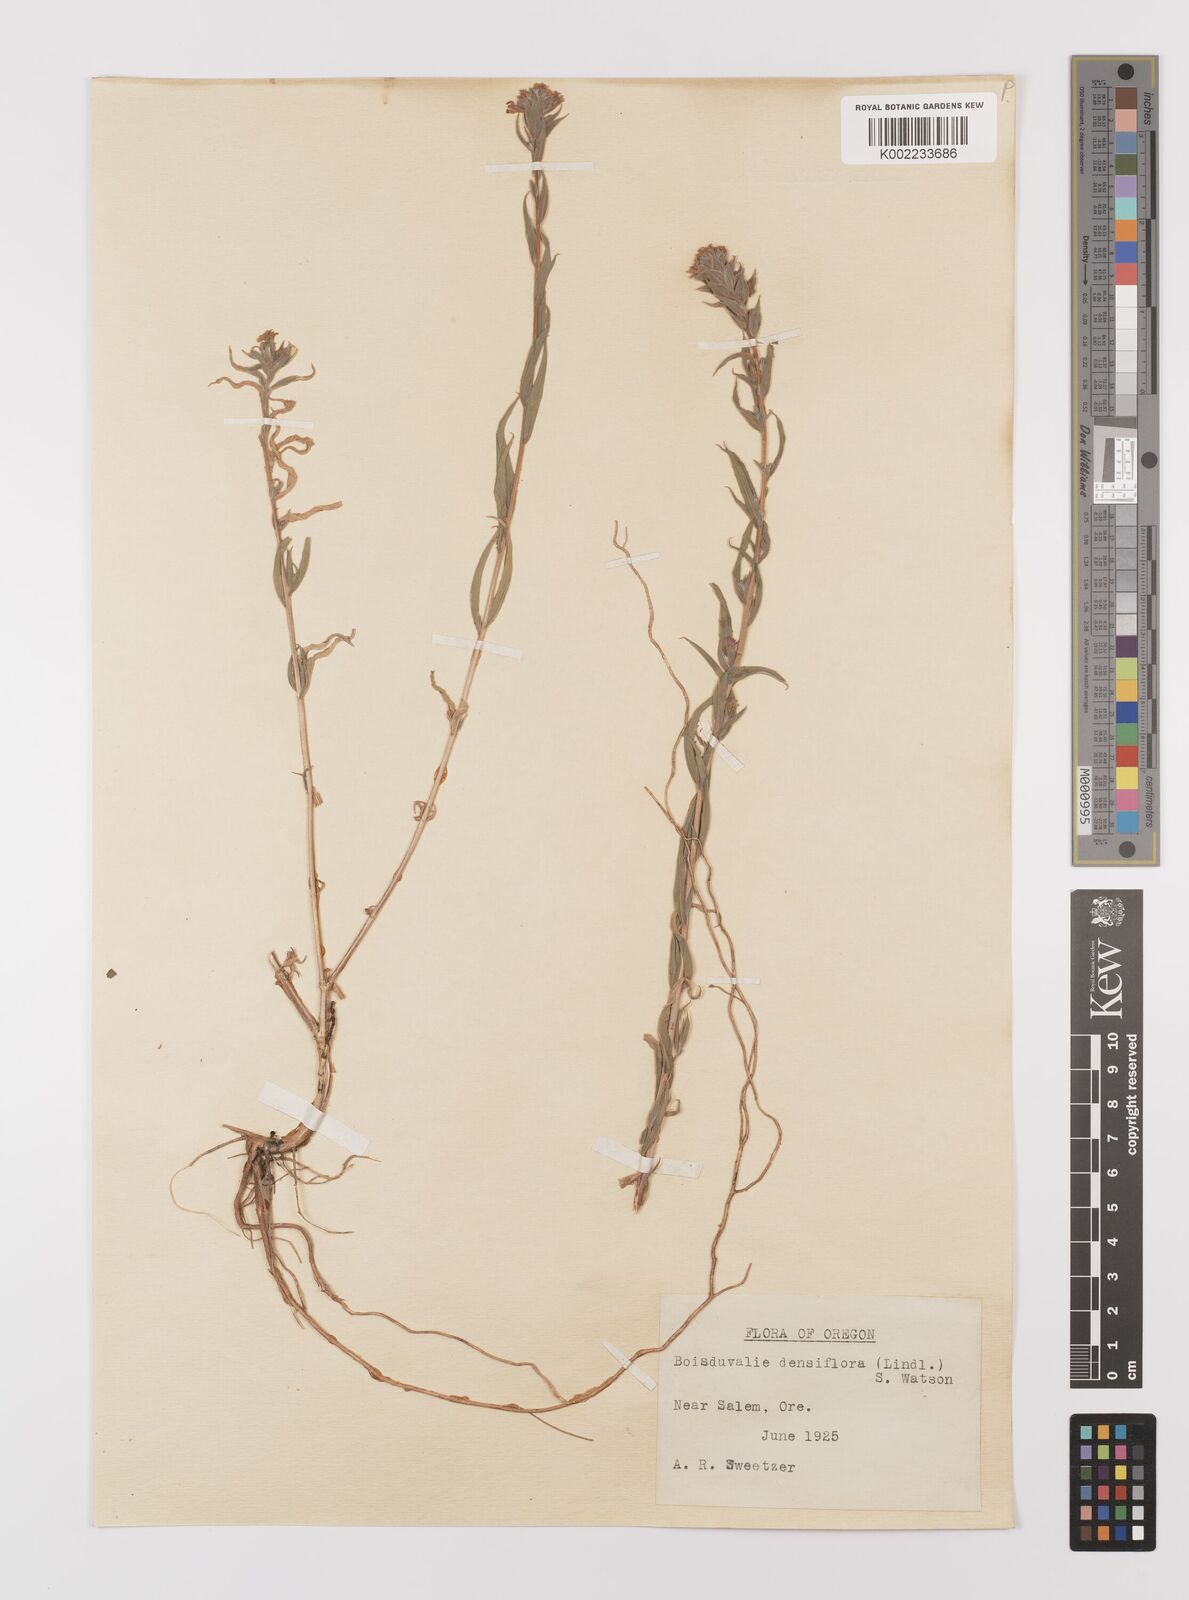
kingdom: Plantae
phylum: Tracheophyta
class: Magnoliopsida
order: Myrtales
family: Onagraceae
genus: Epilobium
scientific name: Epilobium densiflorum
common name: Dense spike-primrose
